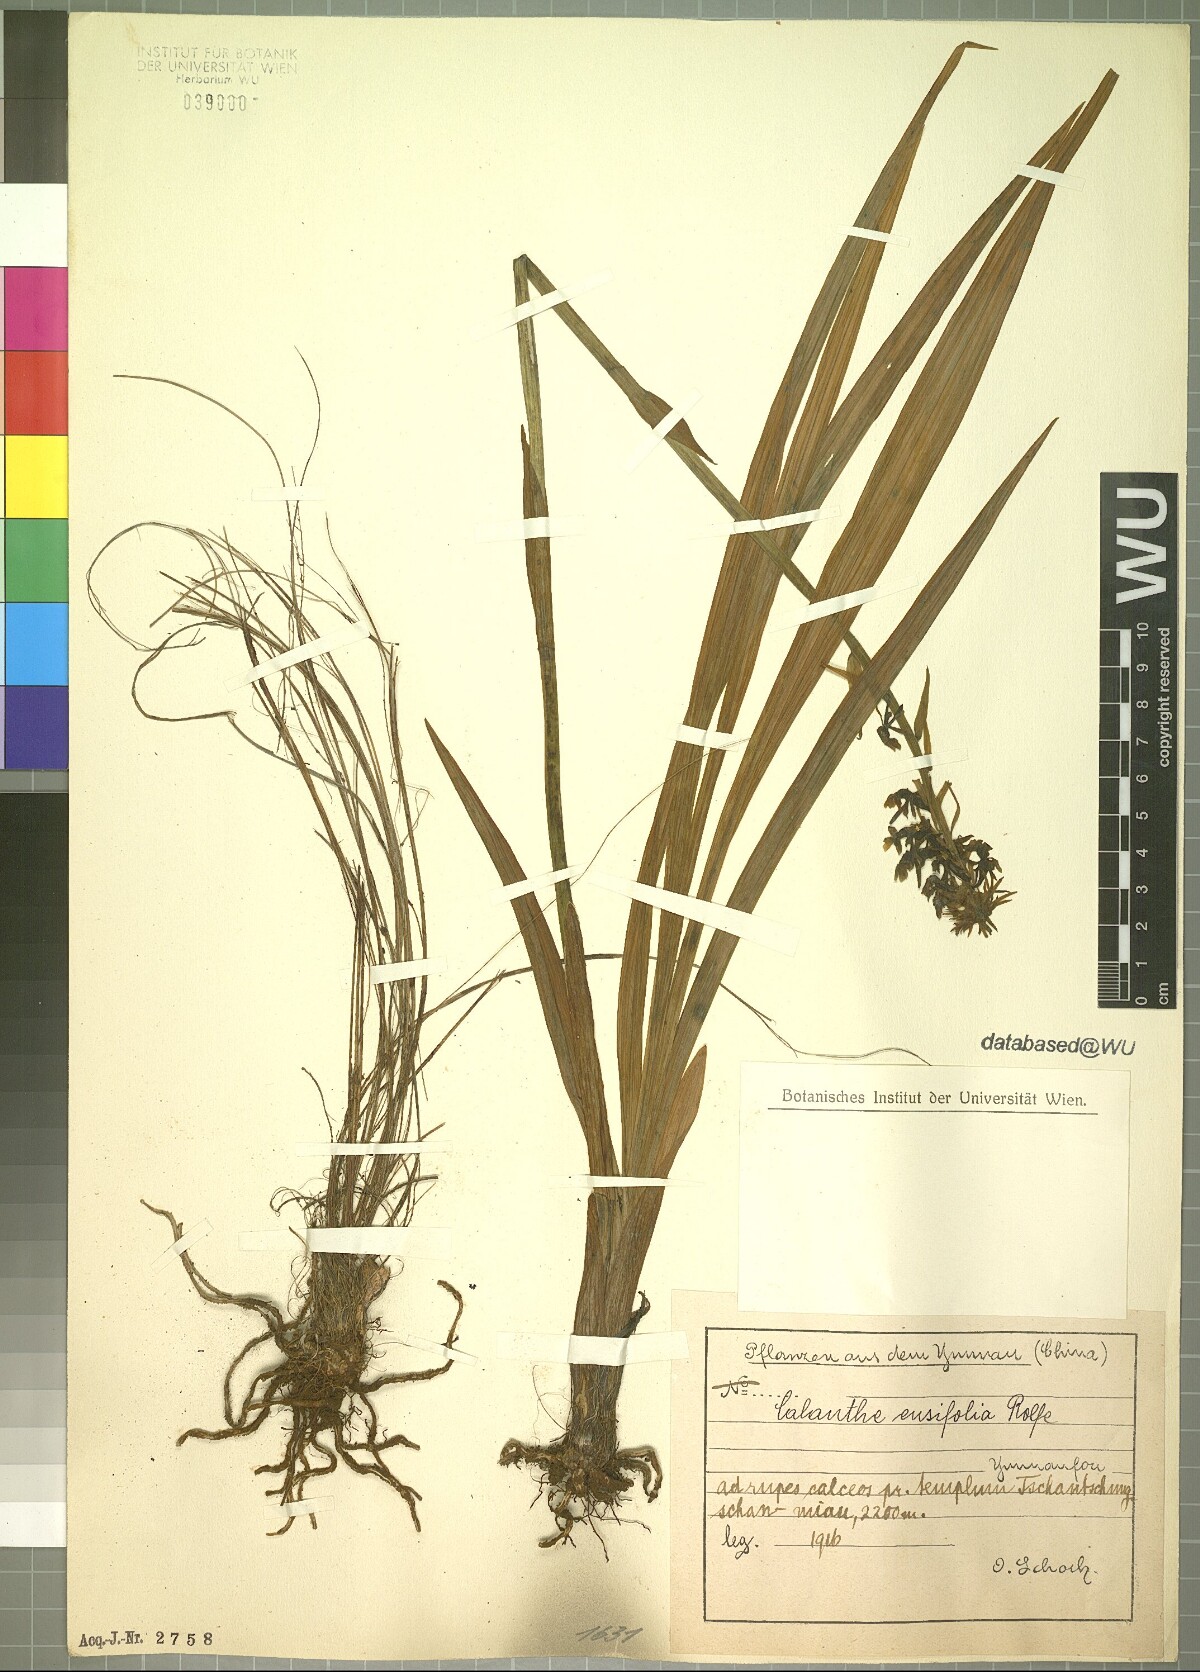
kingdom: Plantae
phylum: Tracheophyta
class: Liliopsida
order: Asparagales
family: Orchidaceae
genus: Calanthe
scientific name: Calanthe davidii
